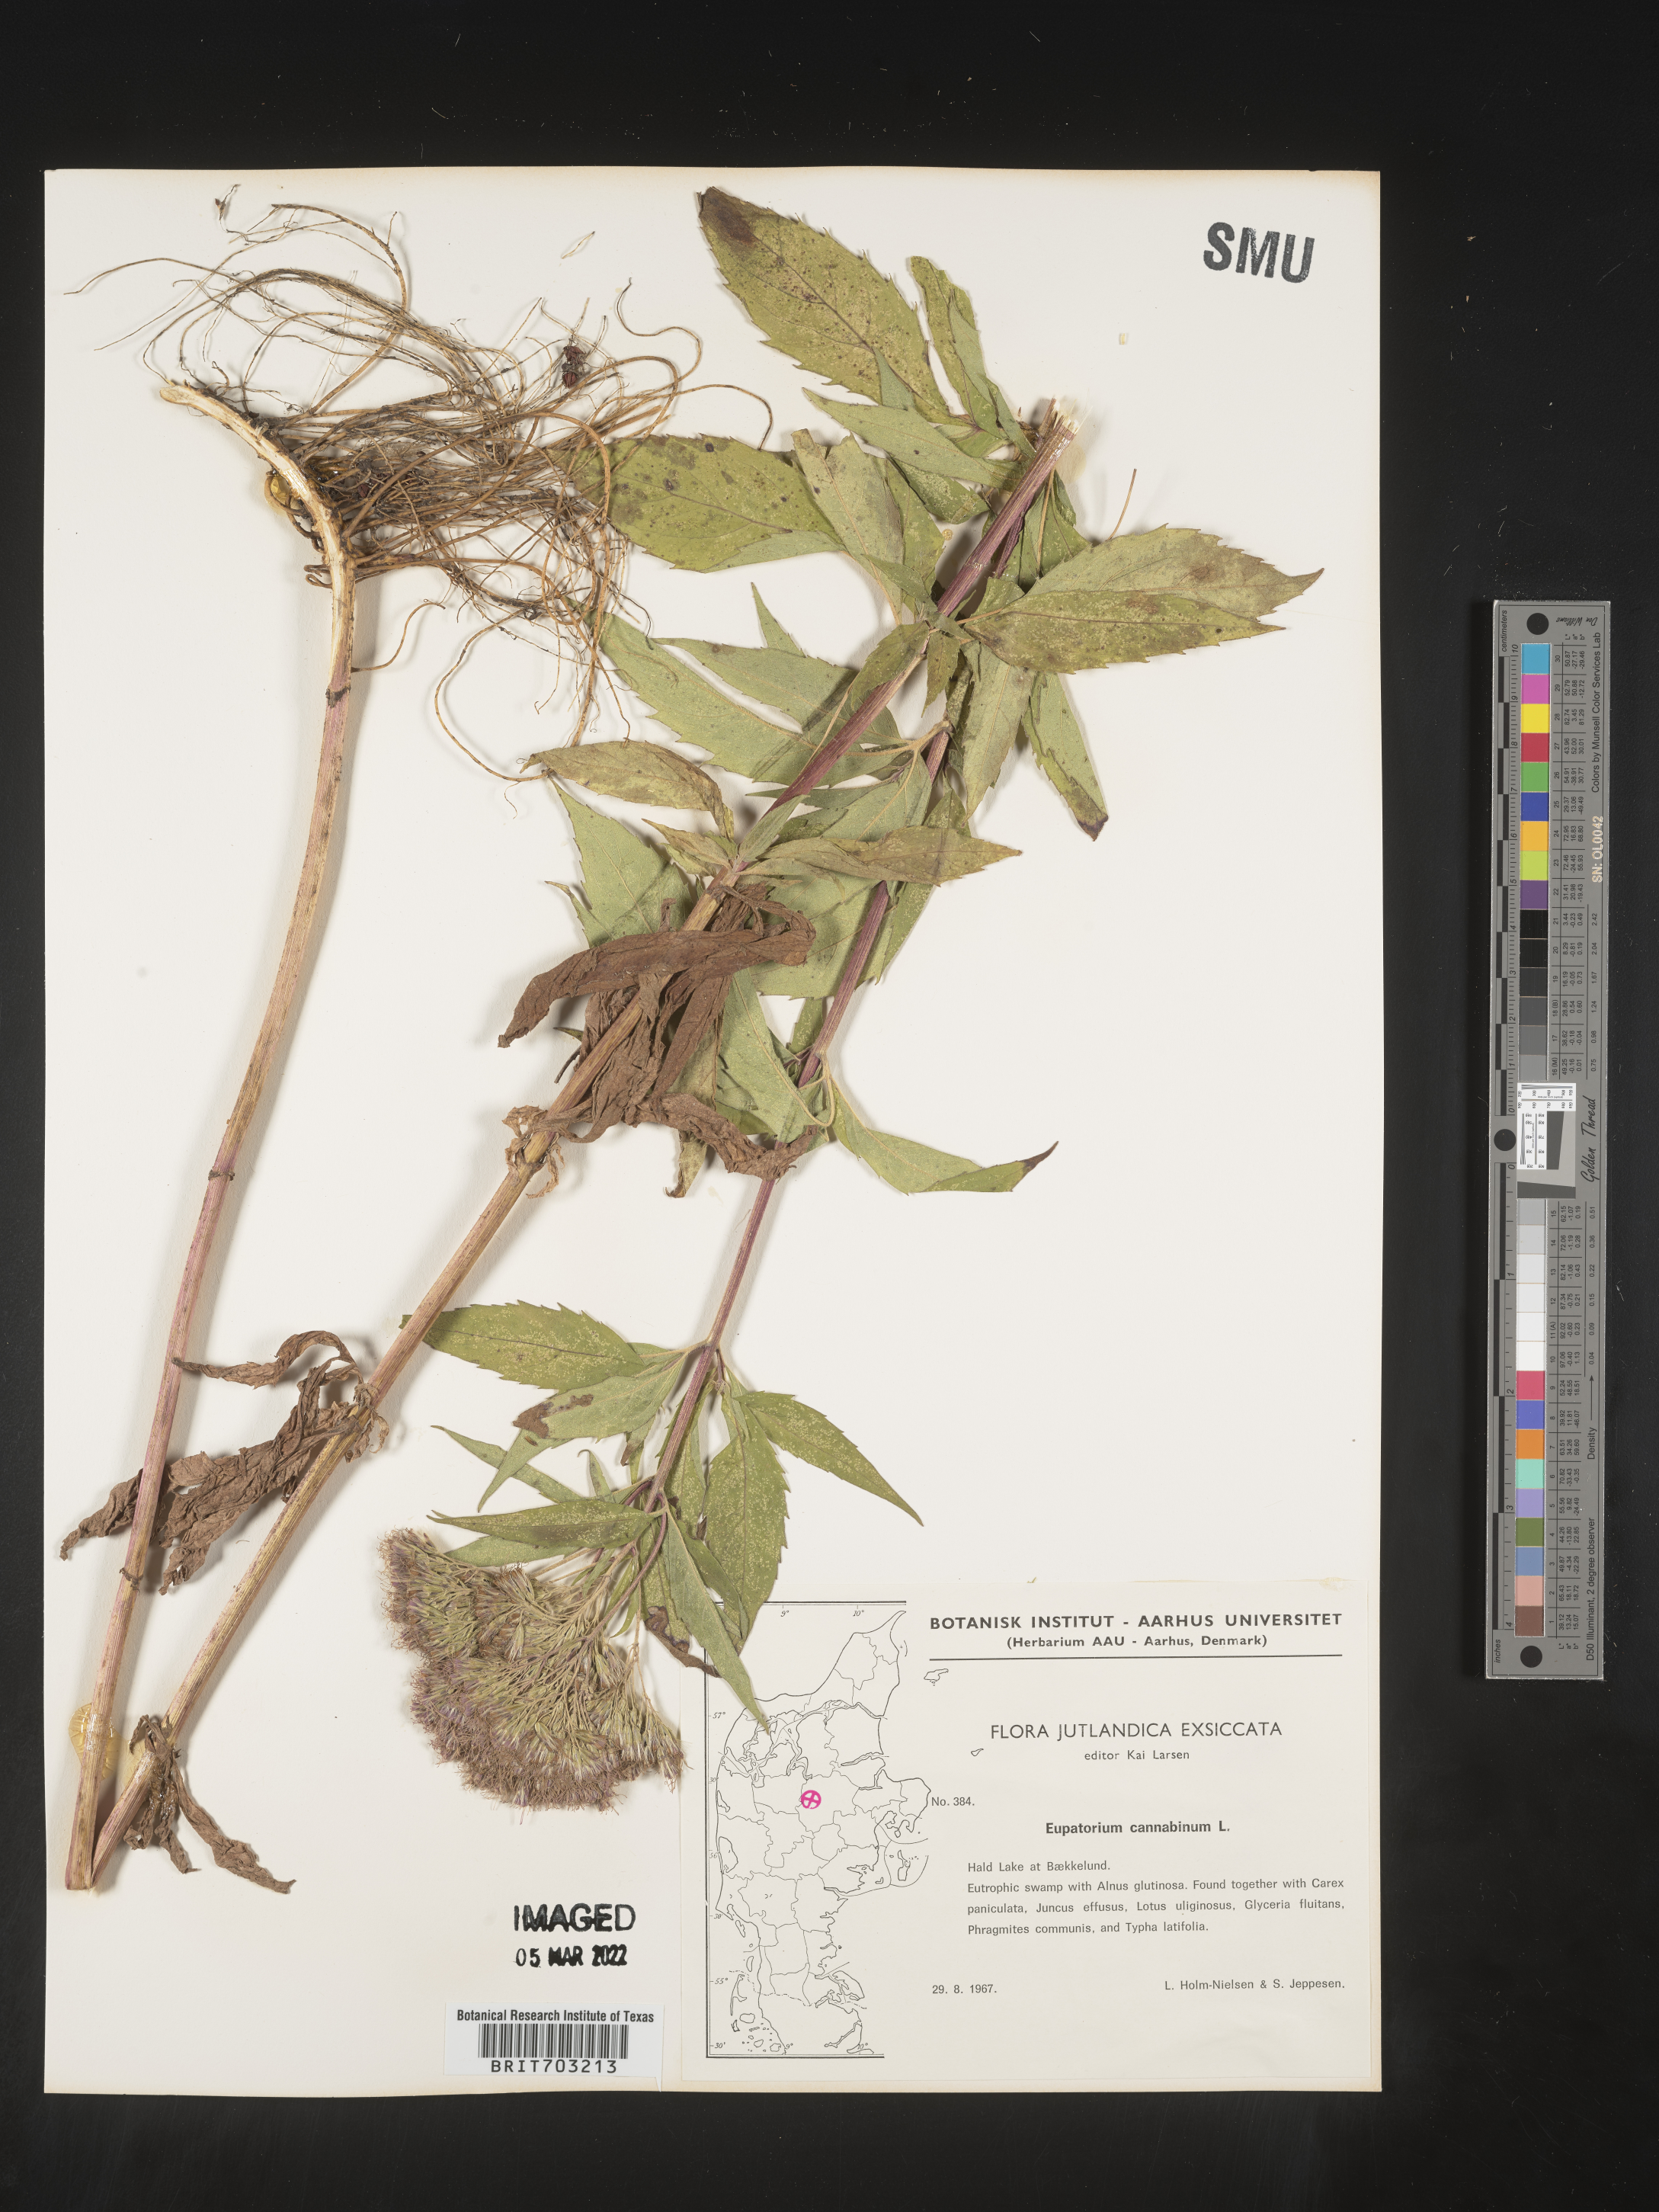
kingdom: Plantae
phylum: Tracheophyta
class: Magnoliopsida
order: Asterales
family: Asteraceae
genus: Eupatorium
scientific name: Eupatorium
